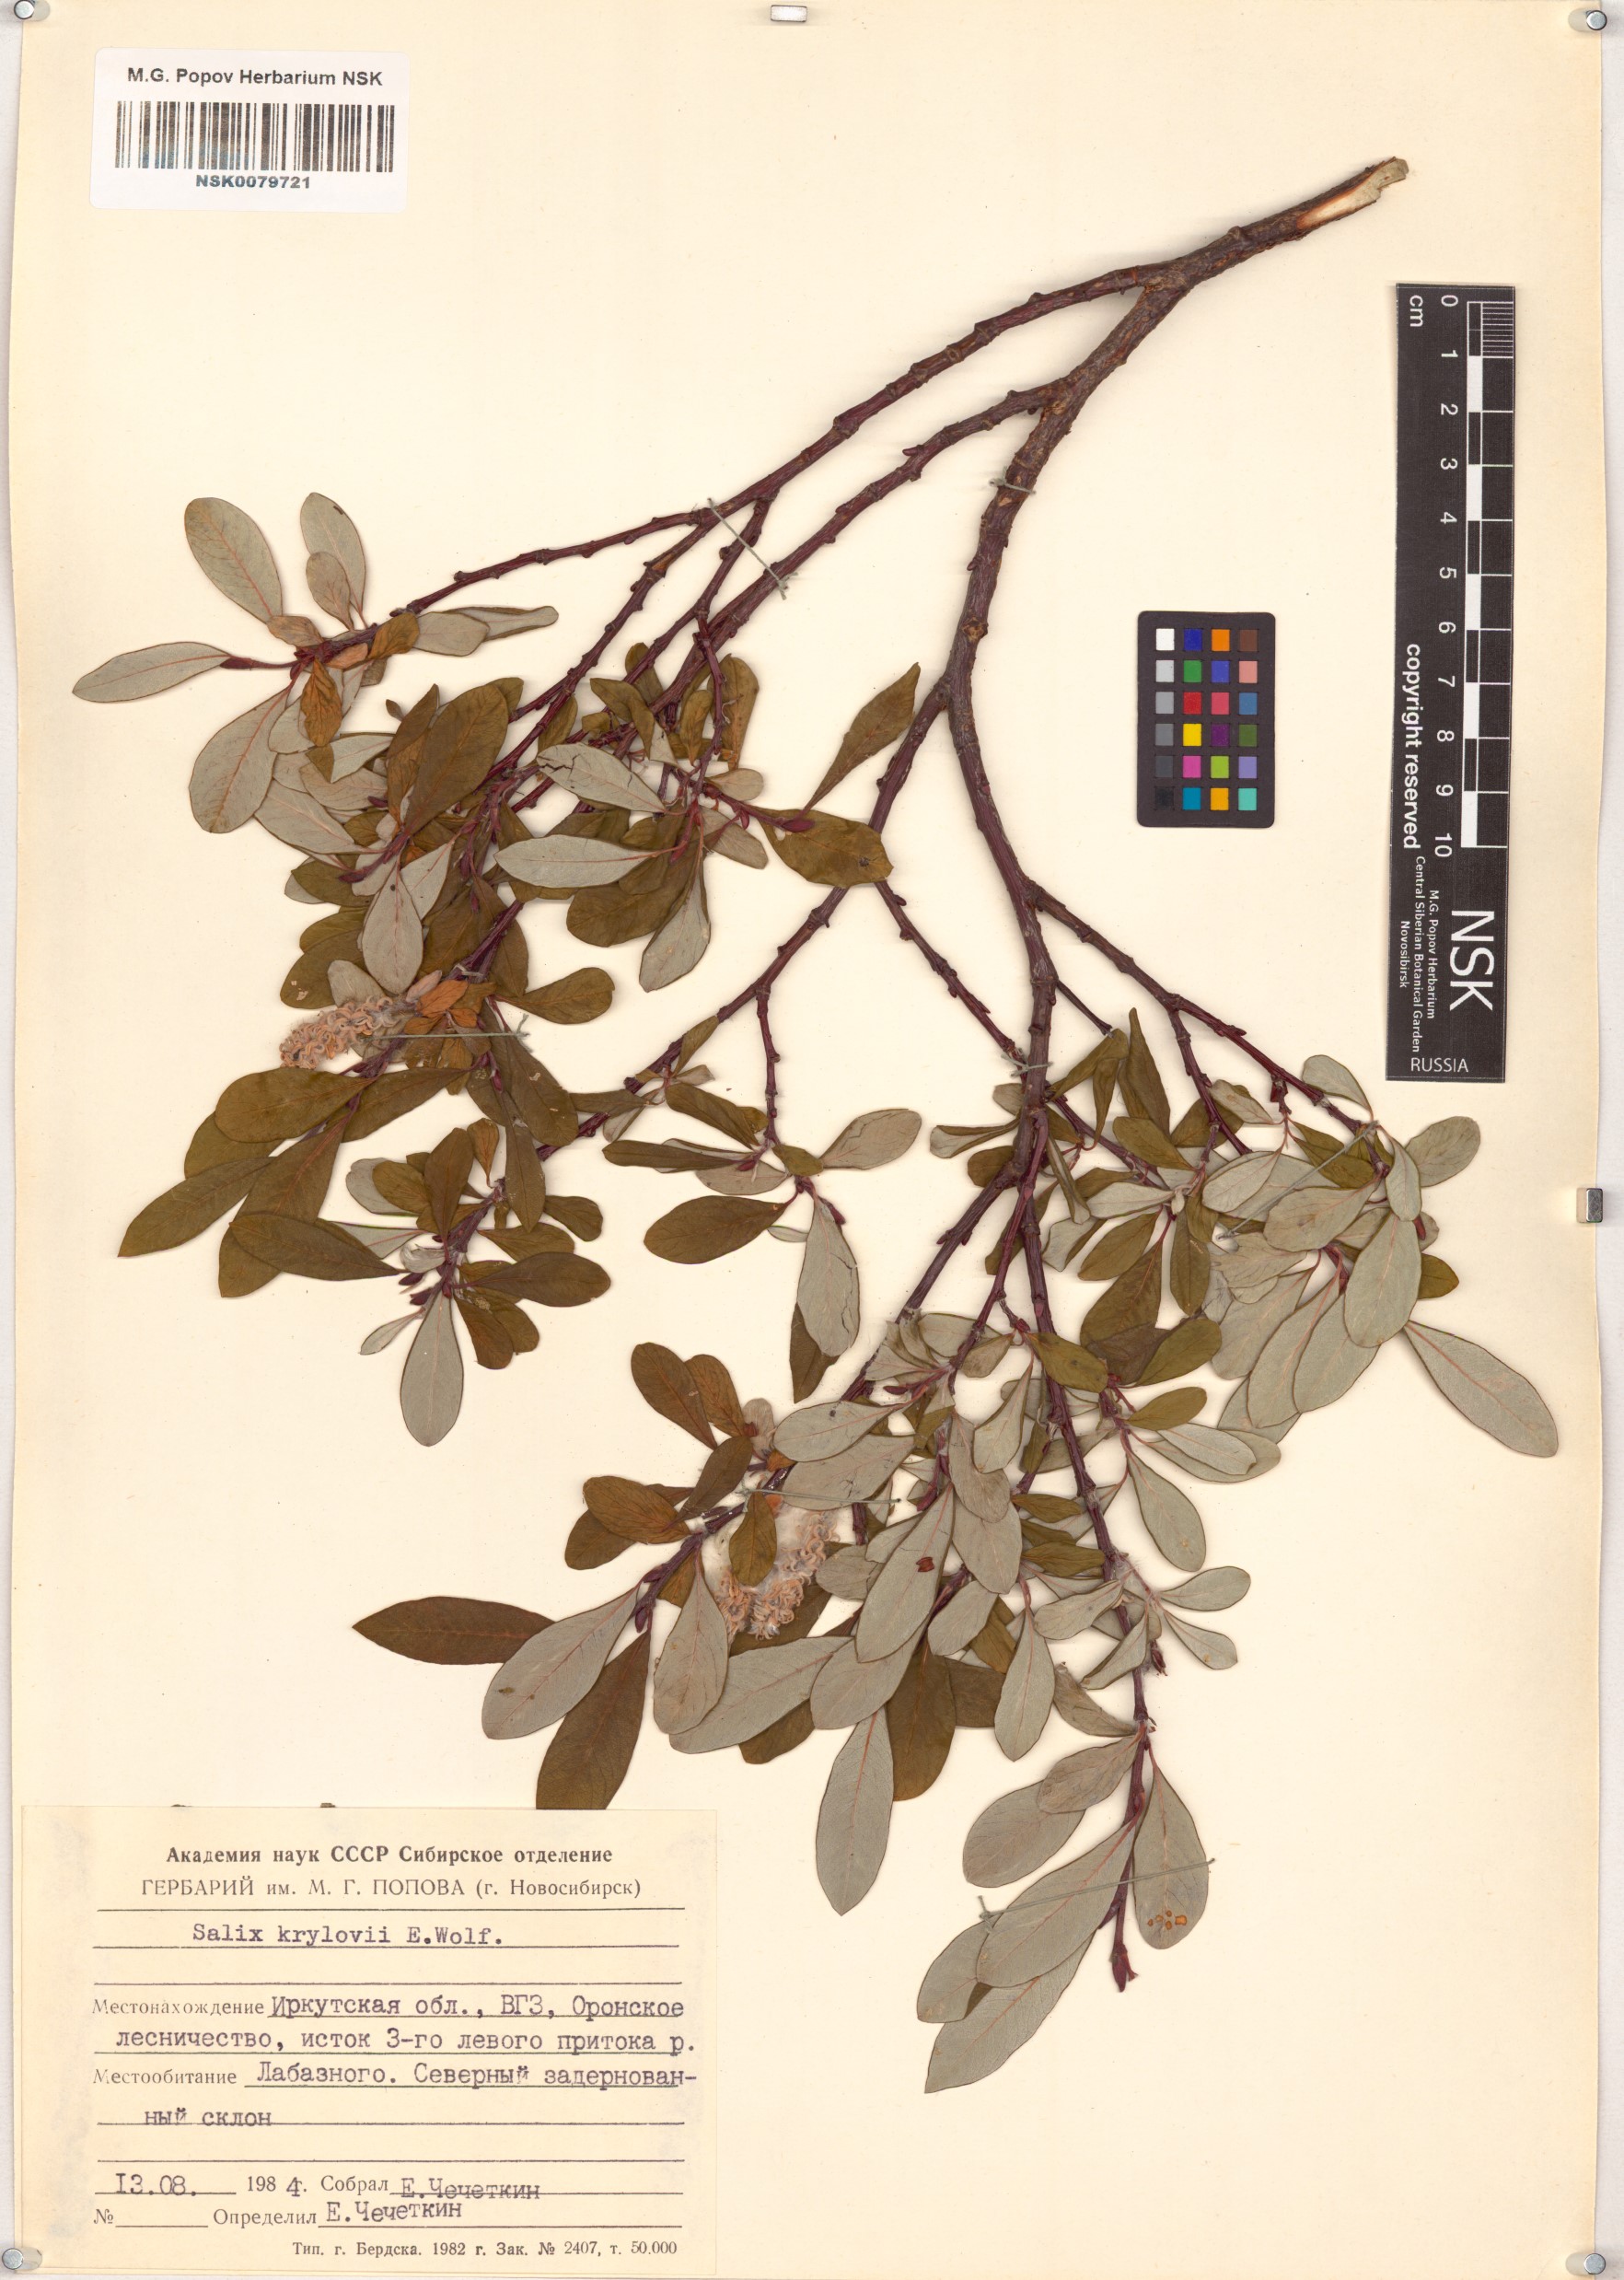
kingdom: Plantae
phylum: Tracheophyta
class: Magnoliopsida
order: Malpighiales
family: Salicaceae
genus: Salix
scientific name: Salix krylovii
